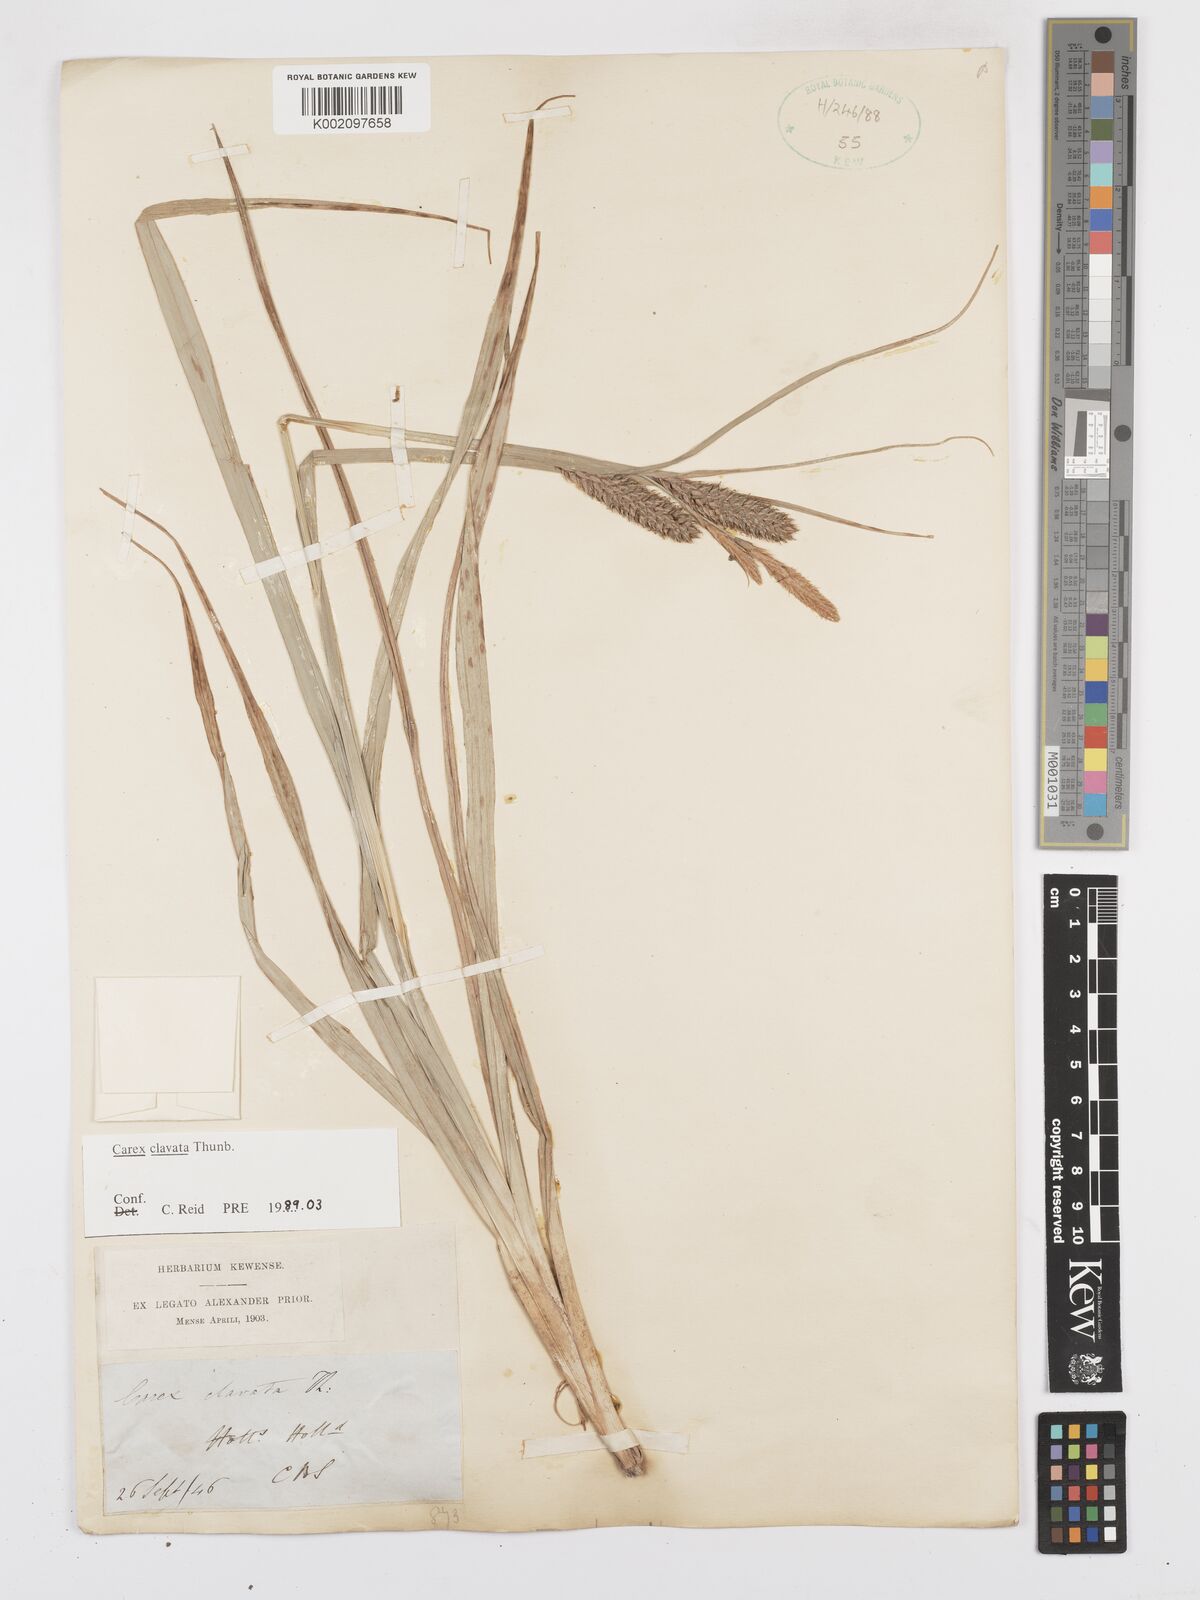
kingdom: Plantae
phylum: Tracheophyta
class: Liliopsida
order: Poales
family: Cyperaceae
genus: Carex
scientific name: Carex clavata
